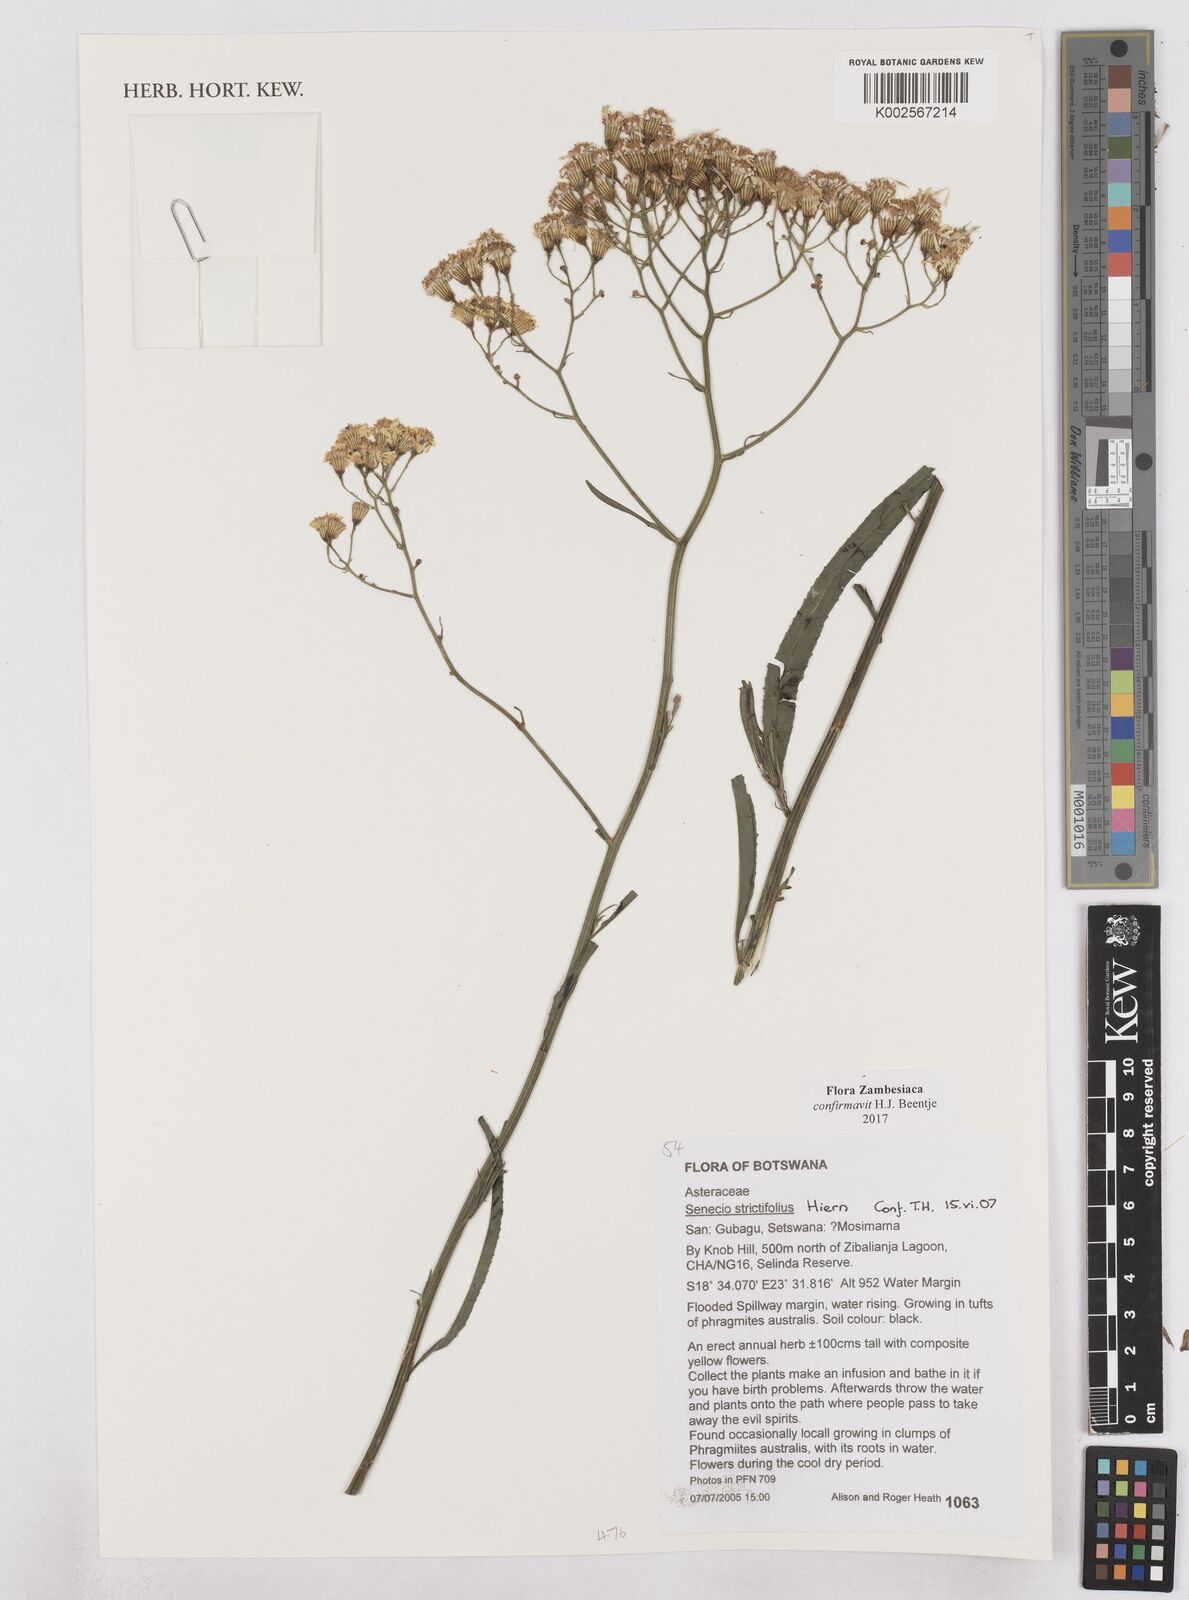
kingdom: Plantae
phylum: Tracheophyta
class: Magnoliopsida
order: Asterales
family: Asteraceae
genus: Senecio
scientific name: Senecio strictifolius
